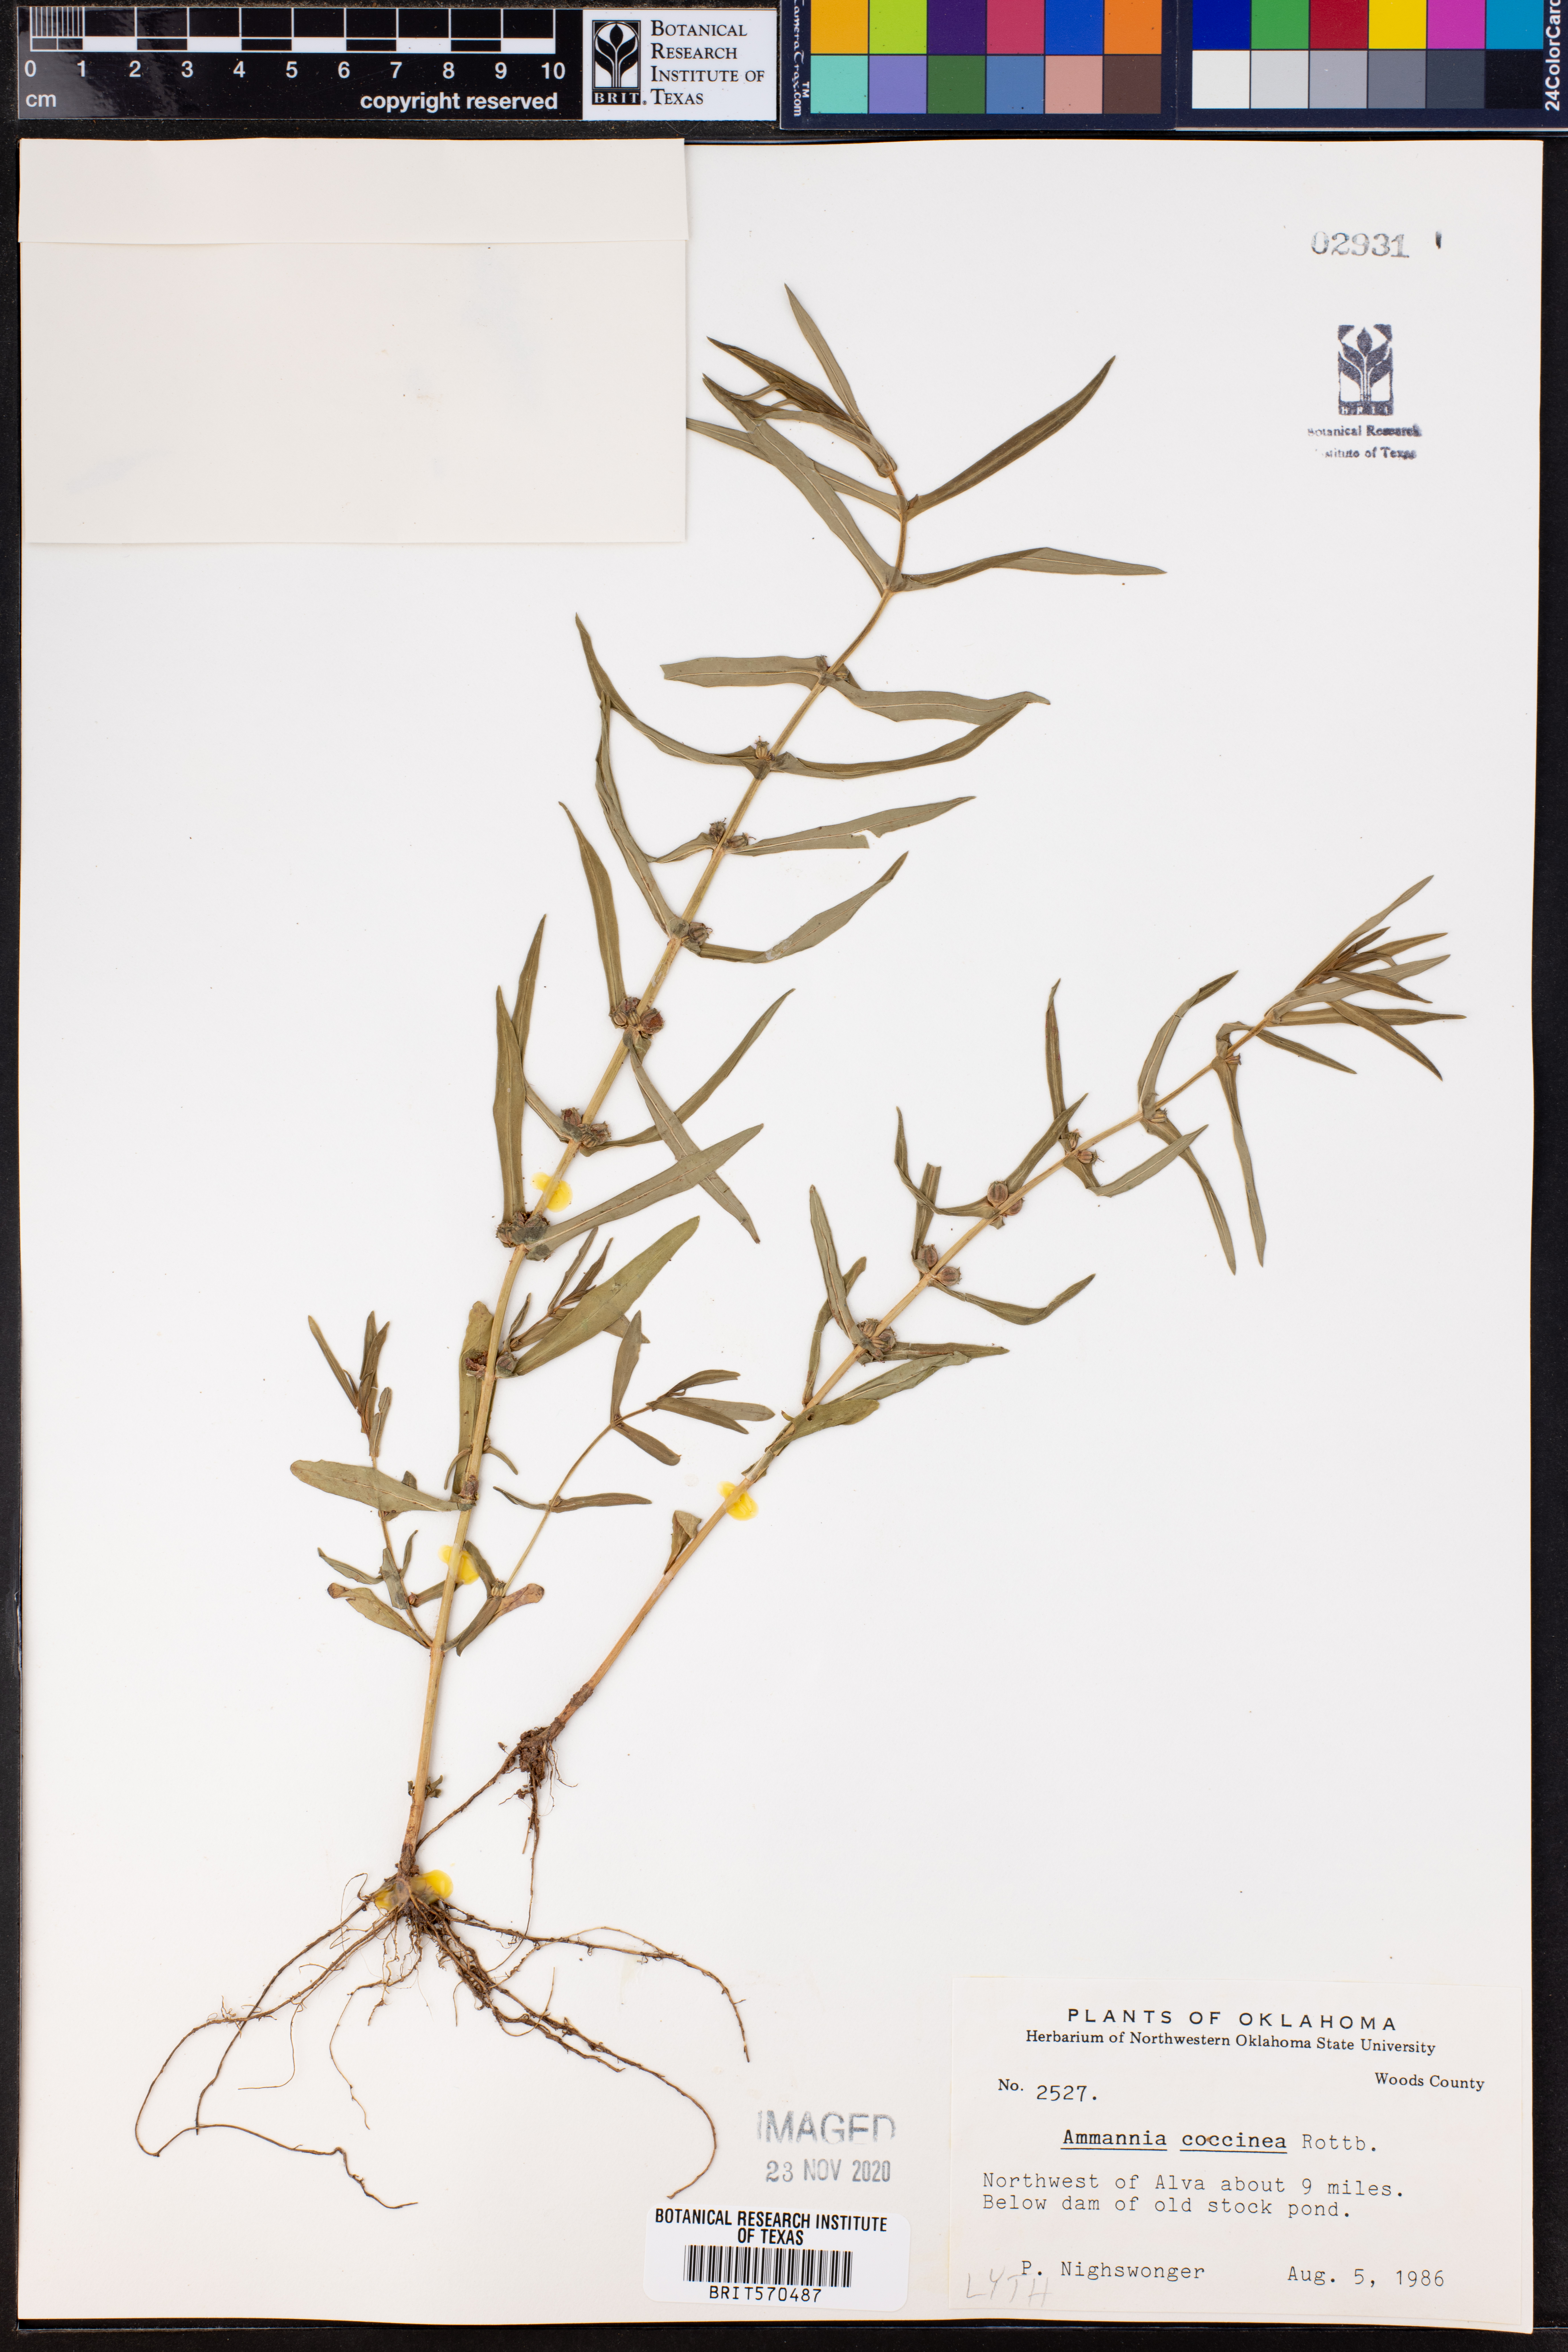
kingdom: Plantae
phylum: Tracheophyta
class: Magnoliopsida
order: Myrtales
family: Lythraceae
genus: Ammannia
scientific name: Ammannia coccinea
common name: Valley redstem
